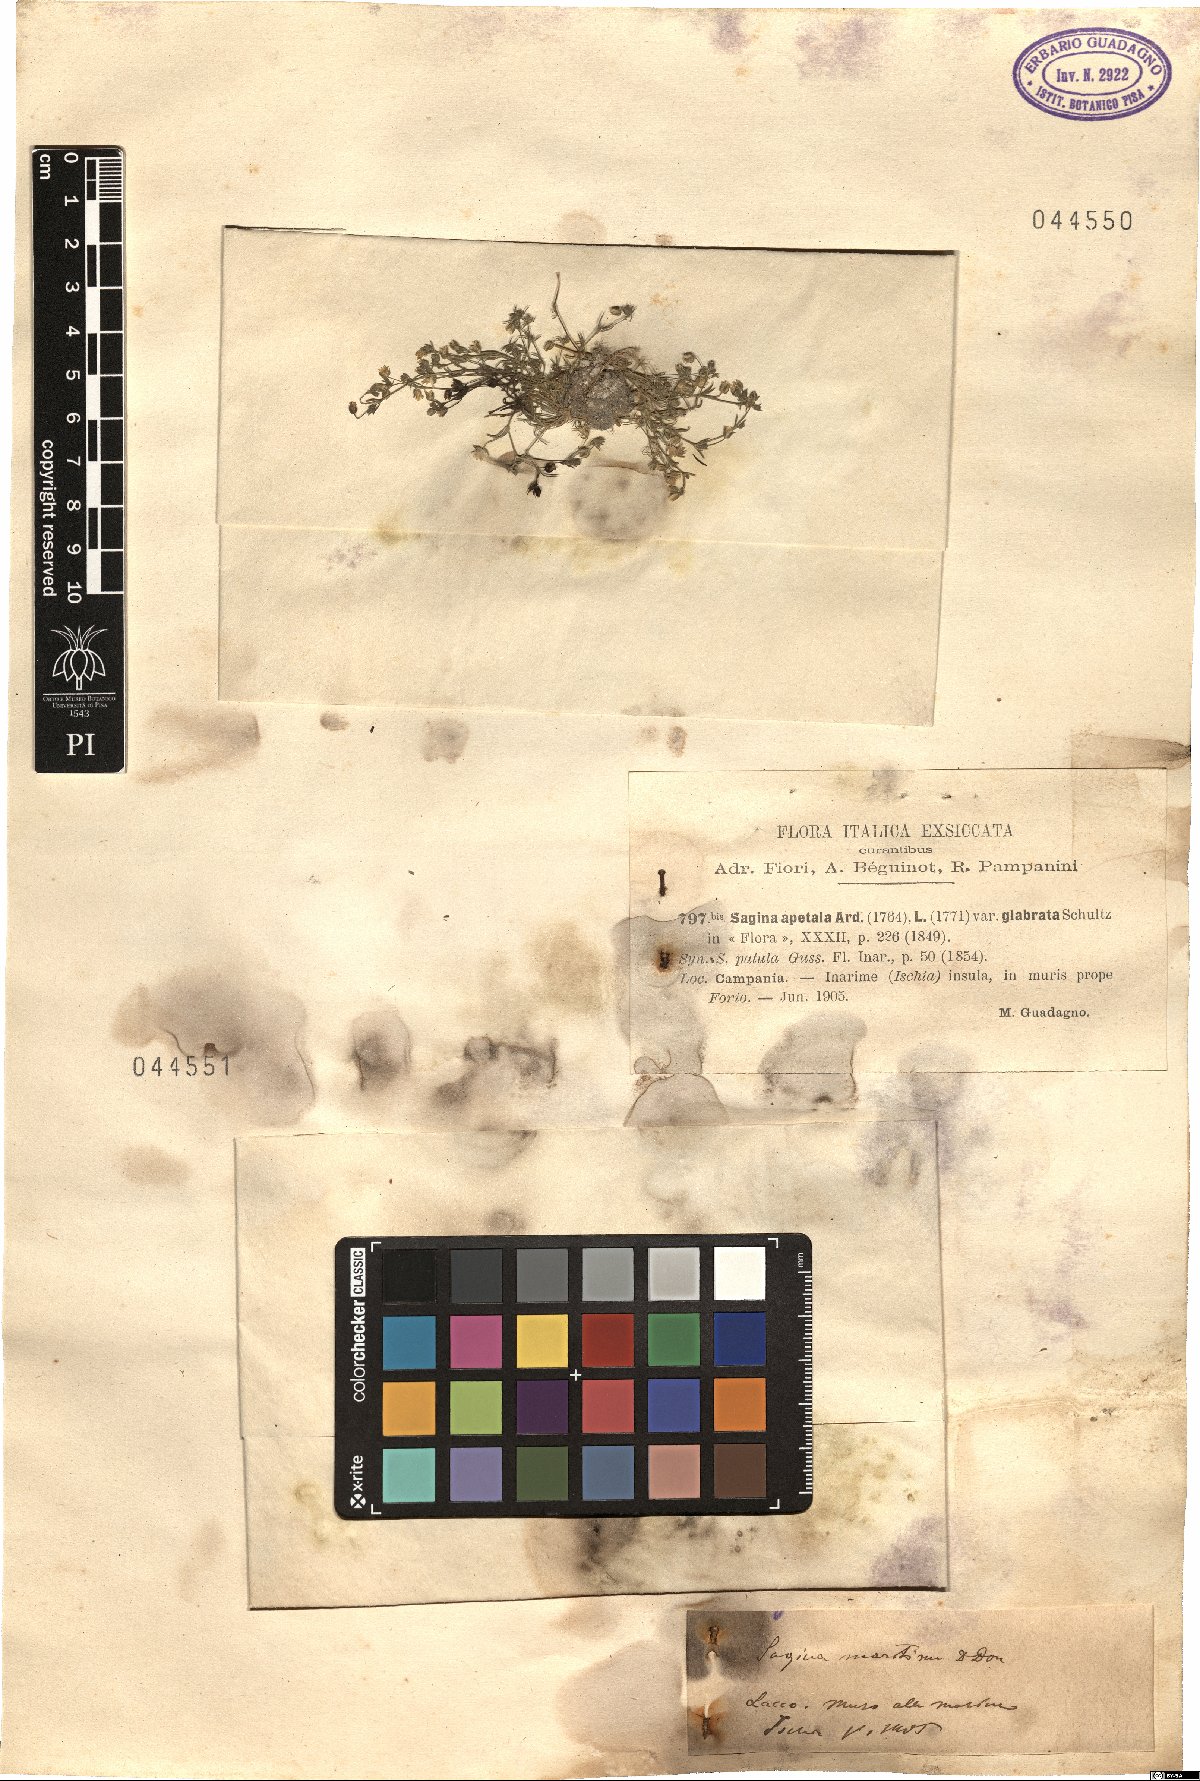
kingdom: Plantae
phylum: Tracheophyta
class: Magnoliopsida
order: Caryophyllales
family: Caryophyllaceae
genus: Sagina
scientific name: Sagina apetala
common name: Annual pearlwort
